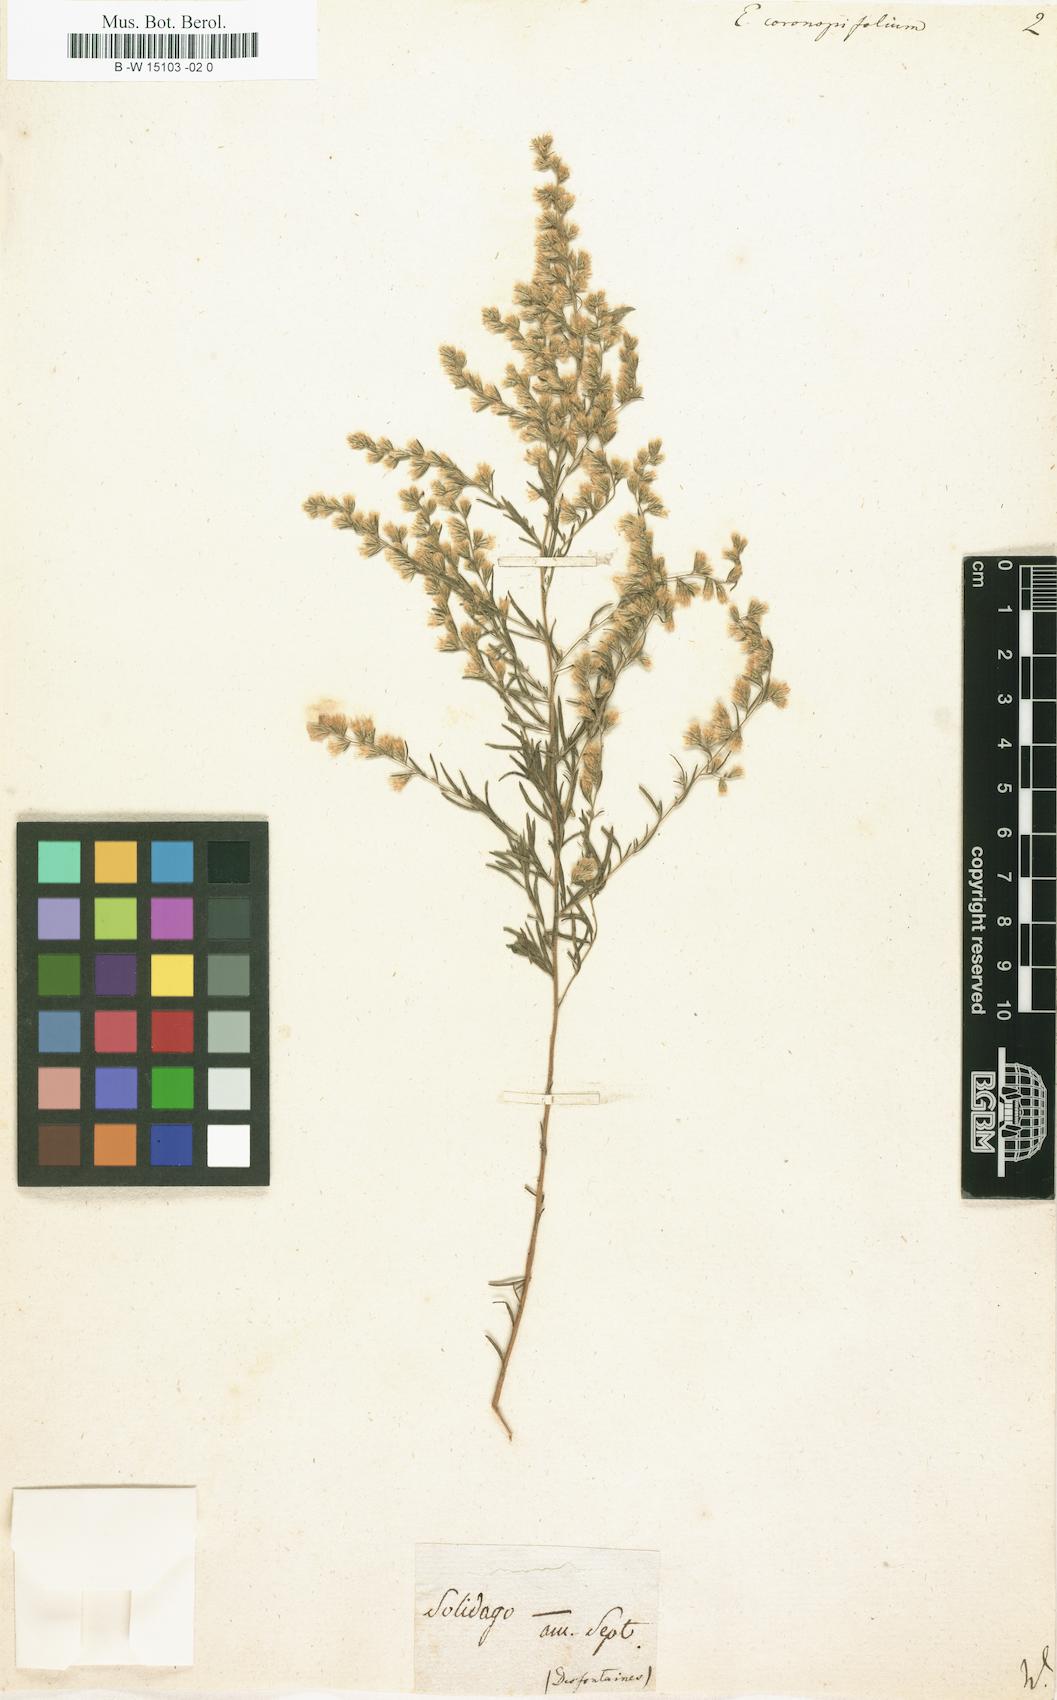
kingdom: Plantae
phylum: Tracheophyta
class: Magnoliopsida
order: Asterales
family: Asteraceae
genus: Eupatorium
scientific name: Eupatorium compositifolium
